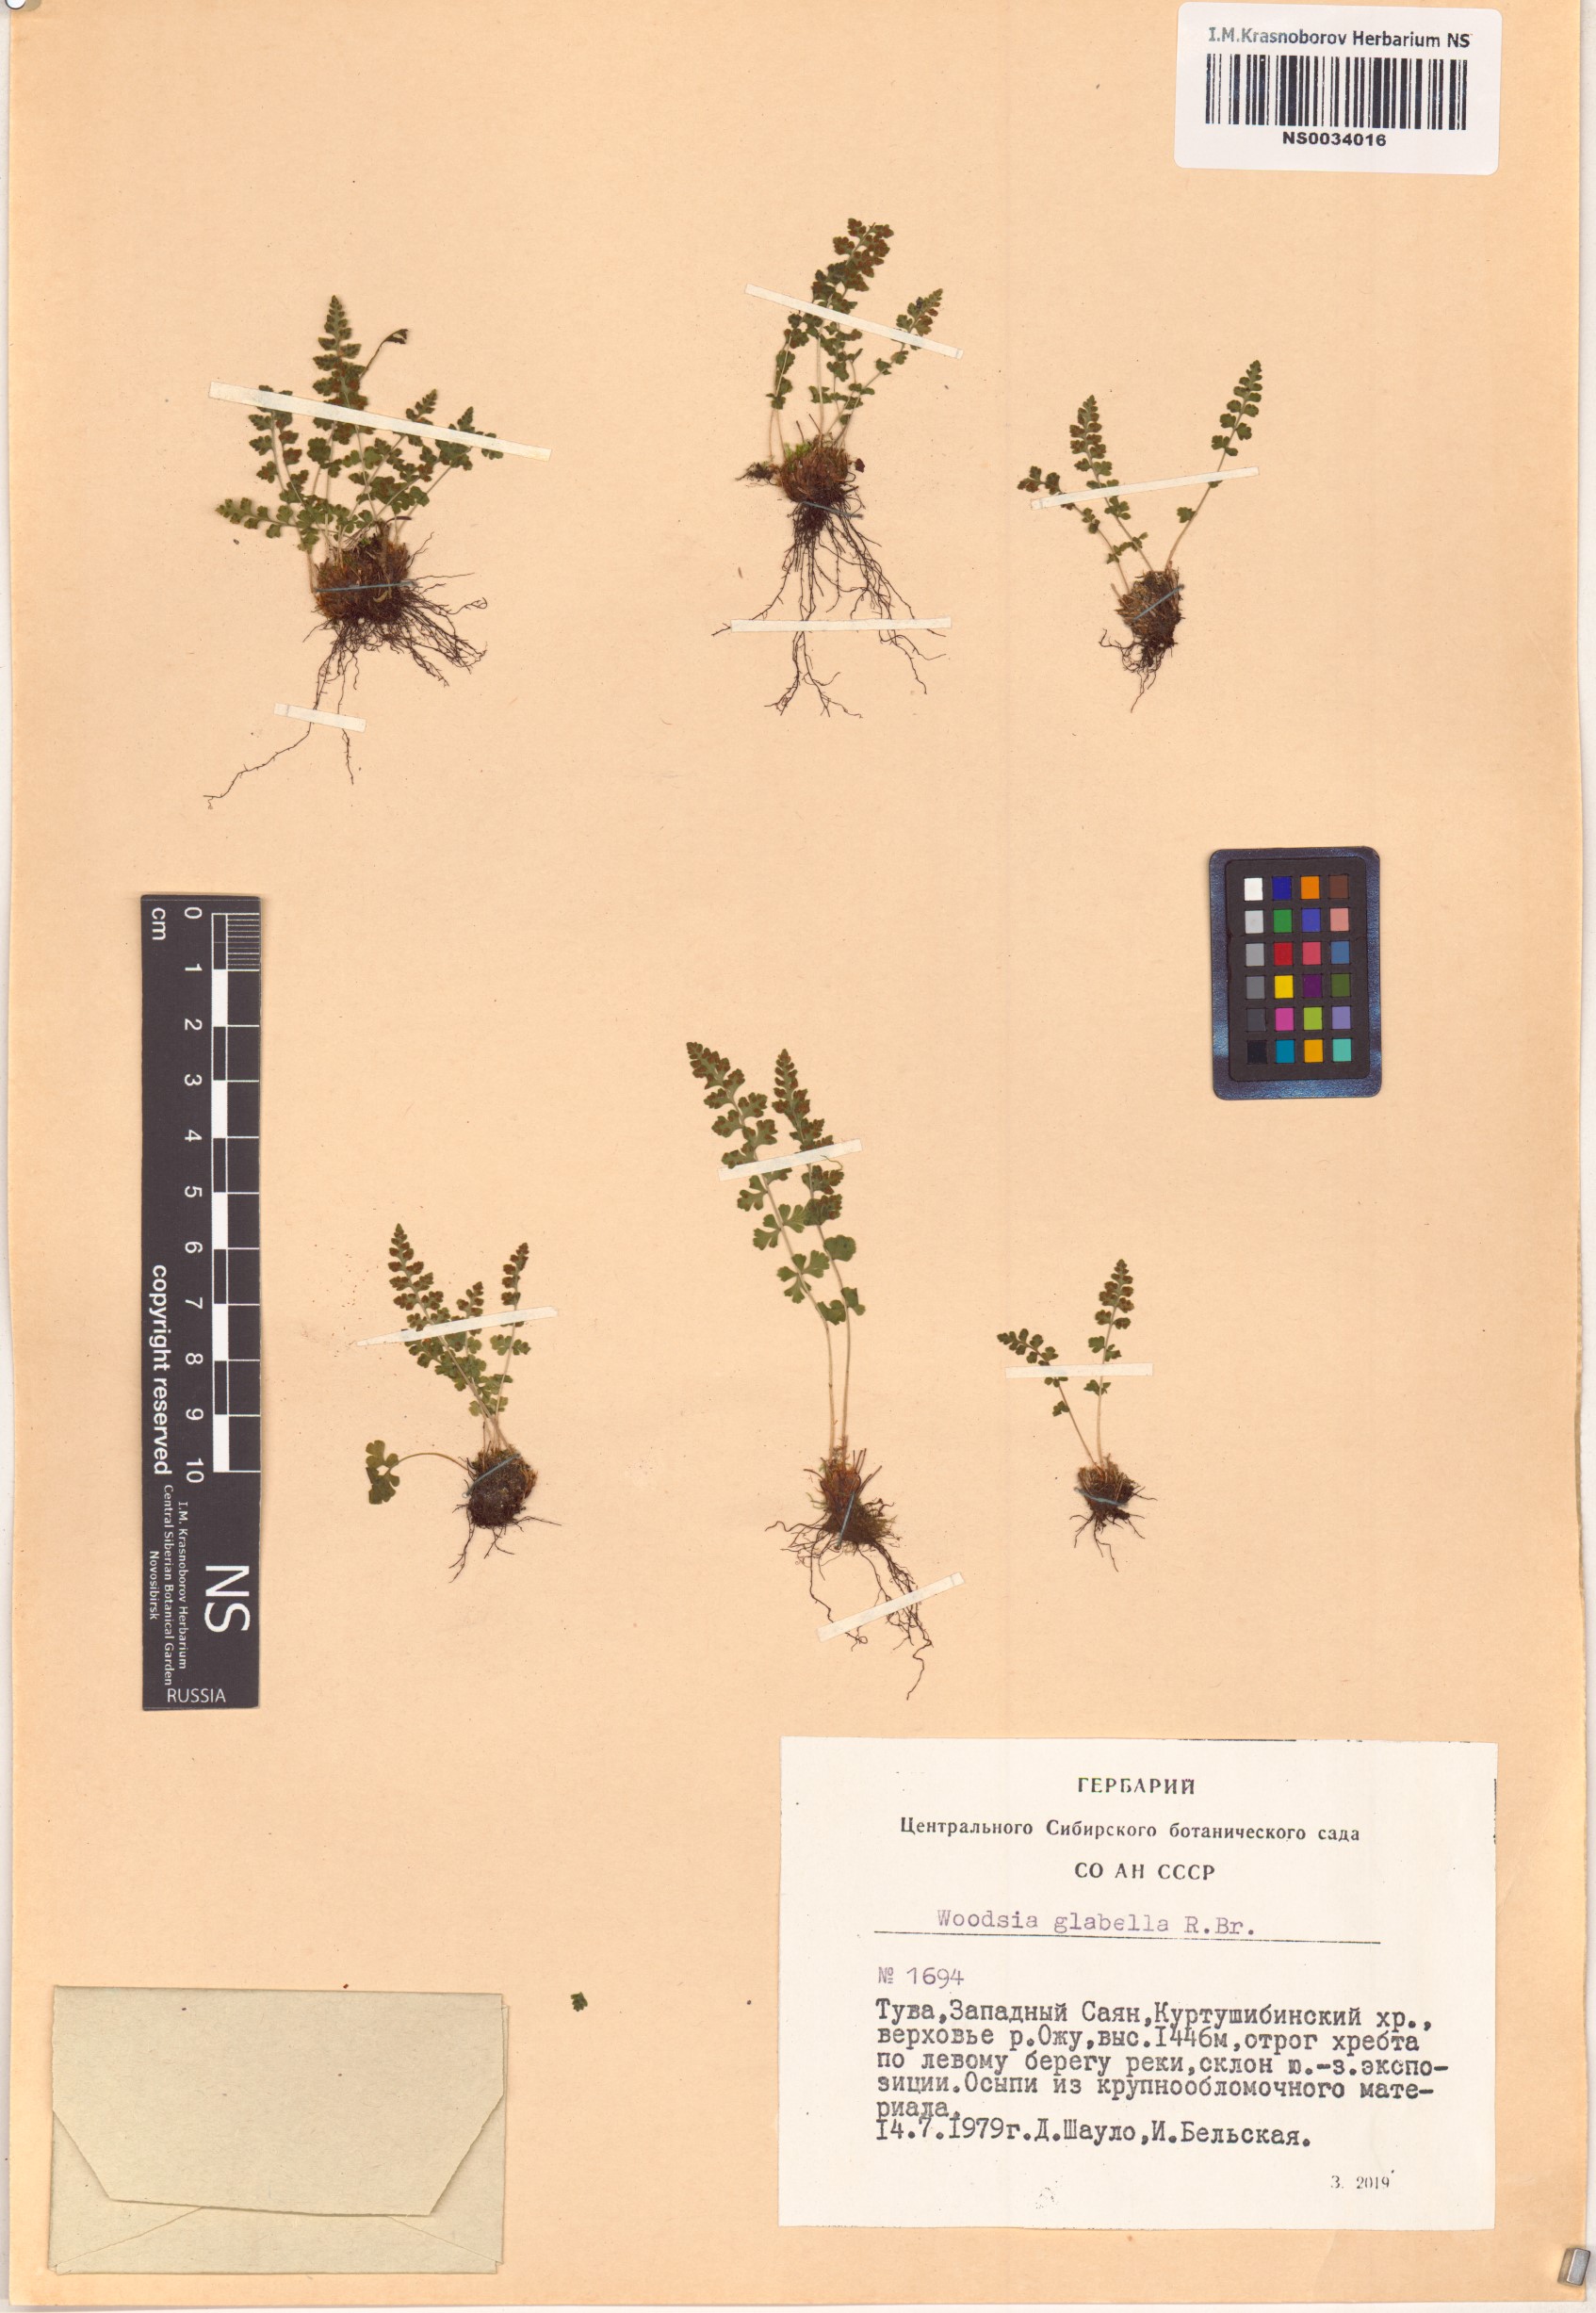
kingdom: Plantae
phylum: Tracheophyta
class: Polypodiopsida
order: Polypodiales
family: Woodsiaceae
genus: Woodsia
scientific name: Woodsia glabella
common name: Smooth woodsia
